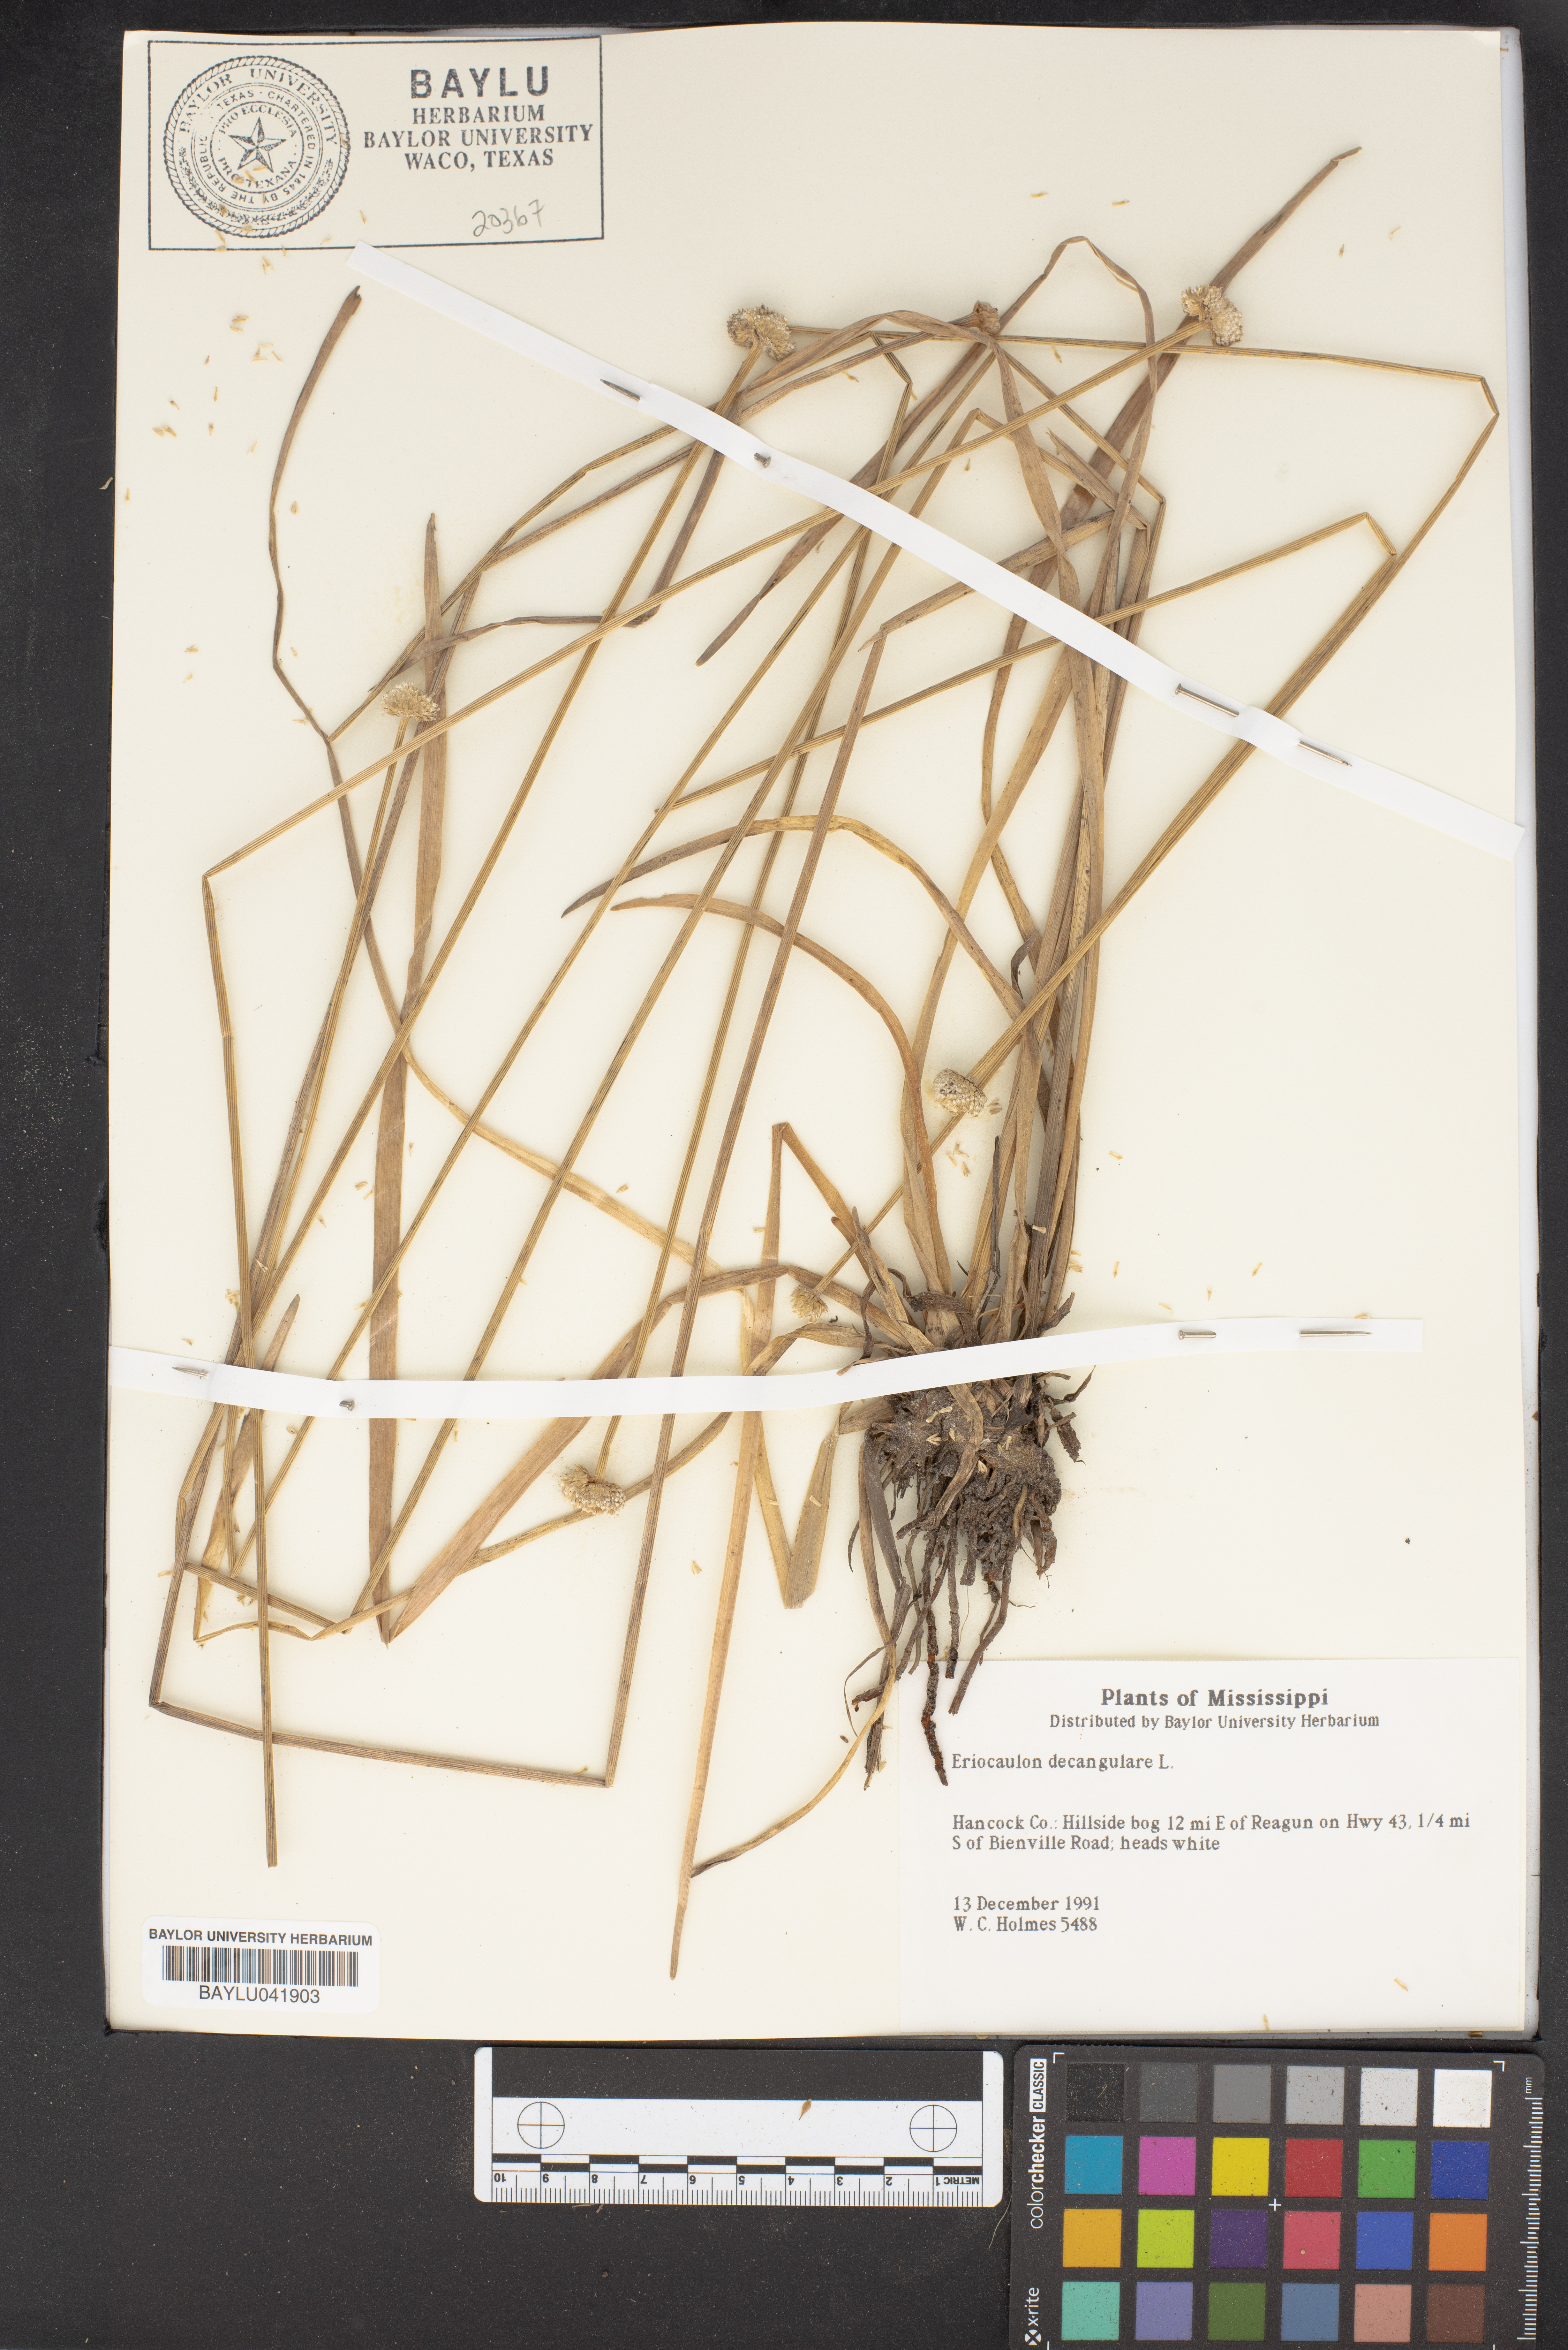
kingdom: Plantae
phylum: Tracheophyta
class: Liliopsida
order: Poales
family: Eriocaulaceae
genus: Eriocaulon
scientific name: Eriocaulon decangulare
